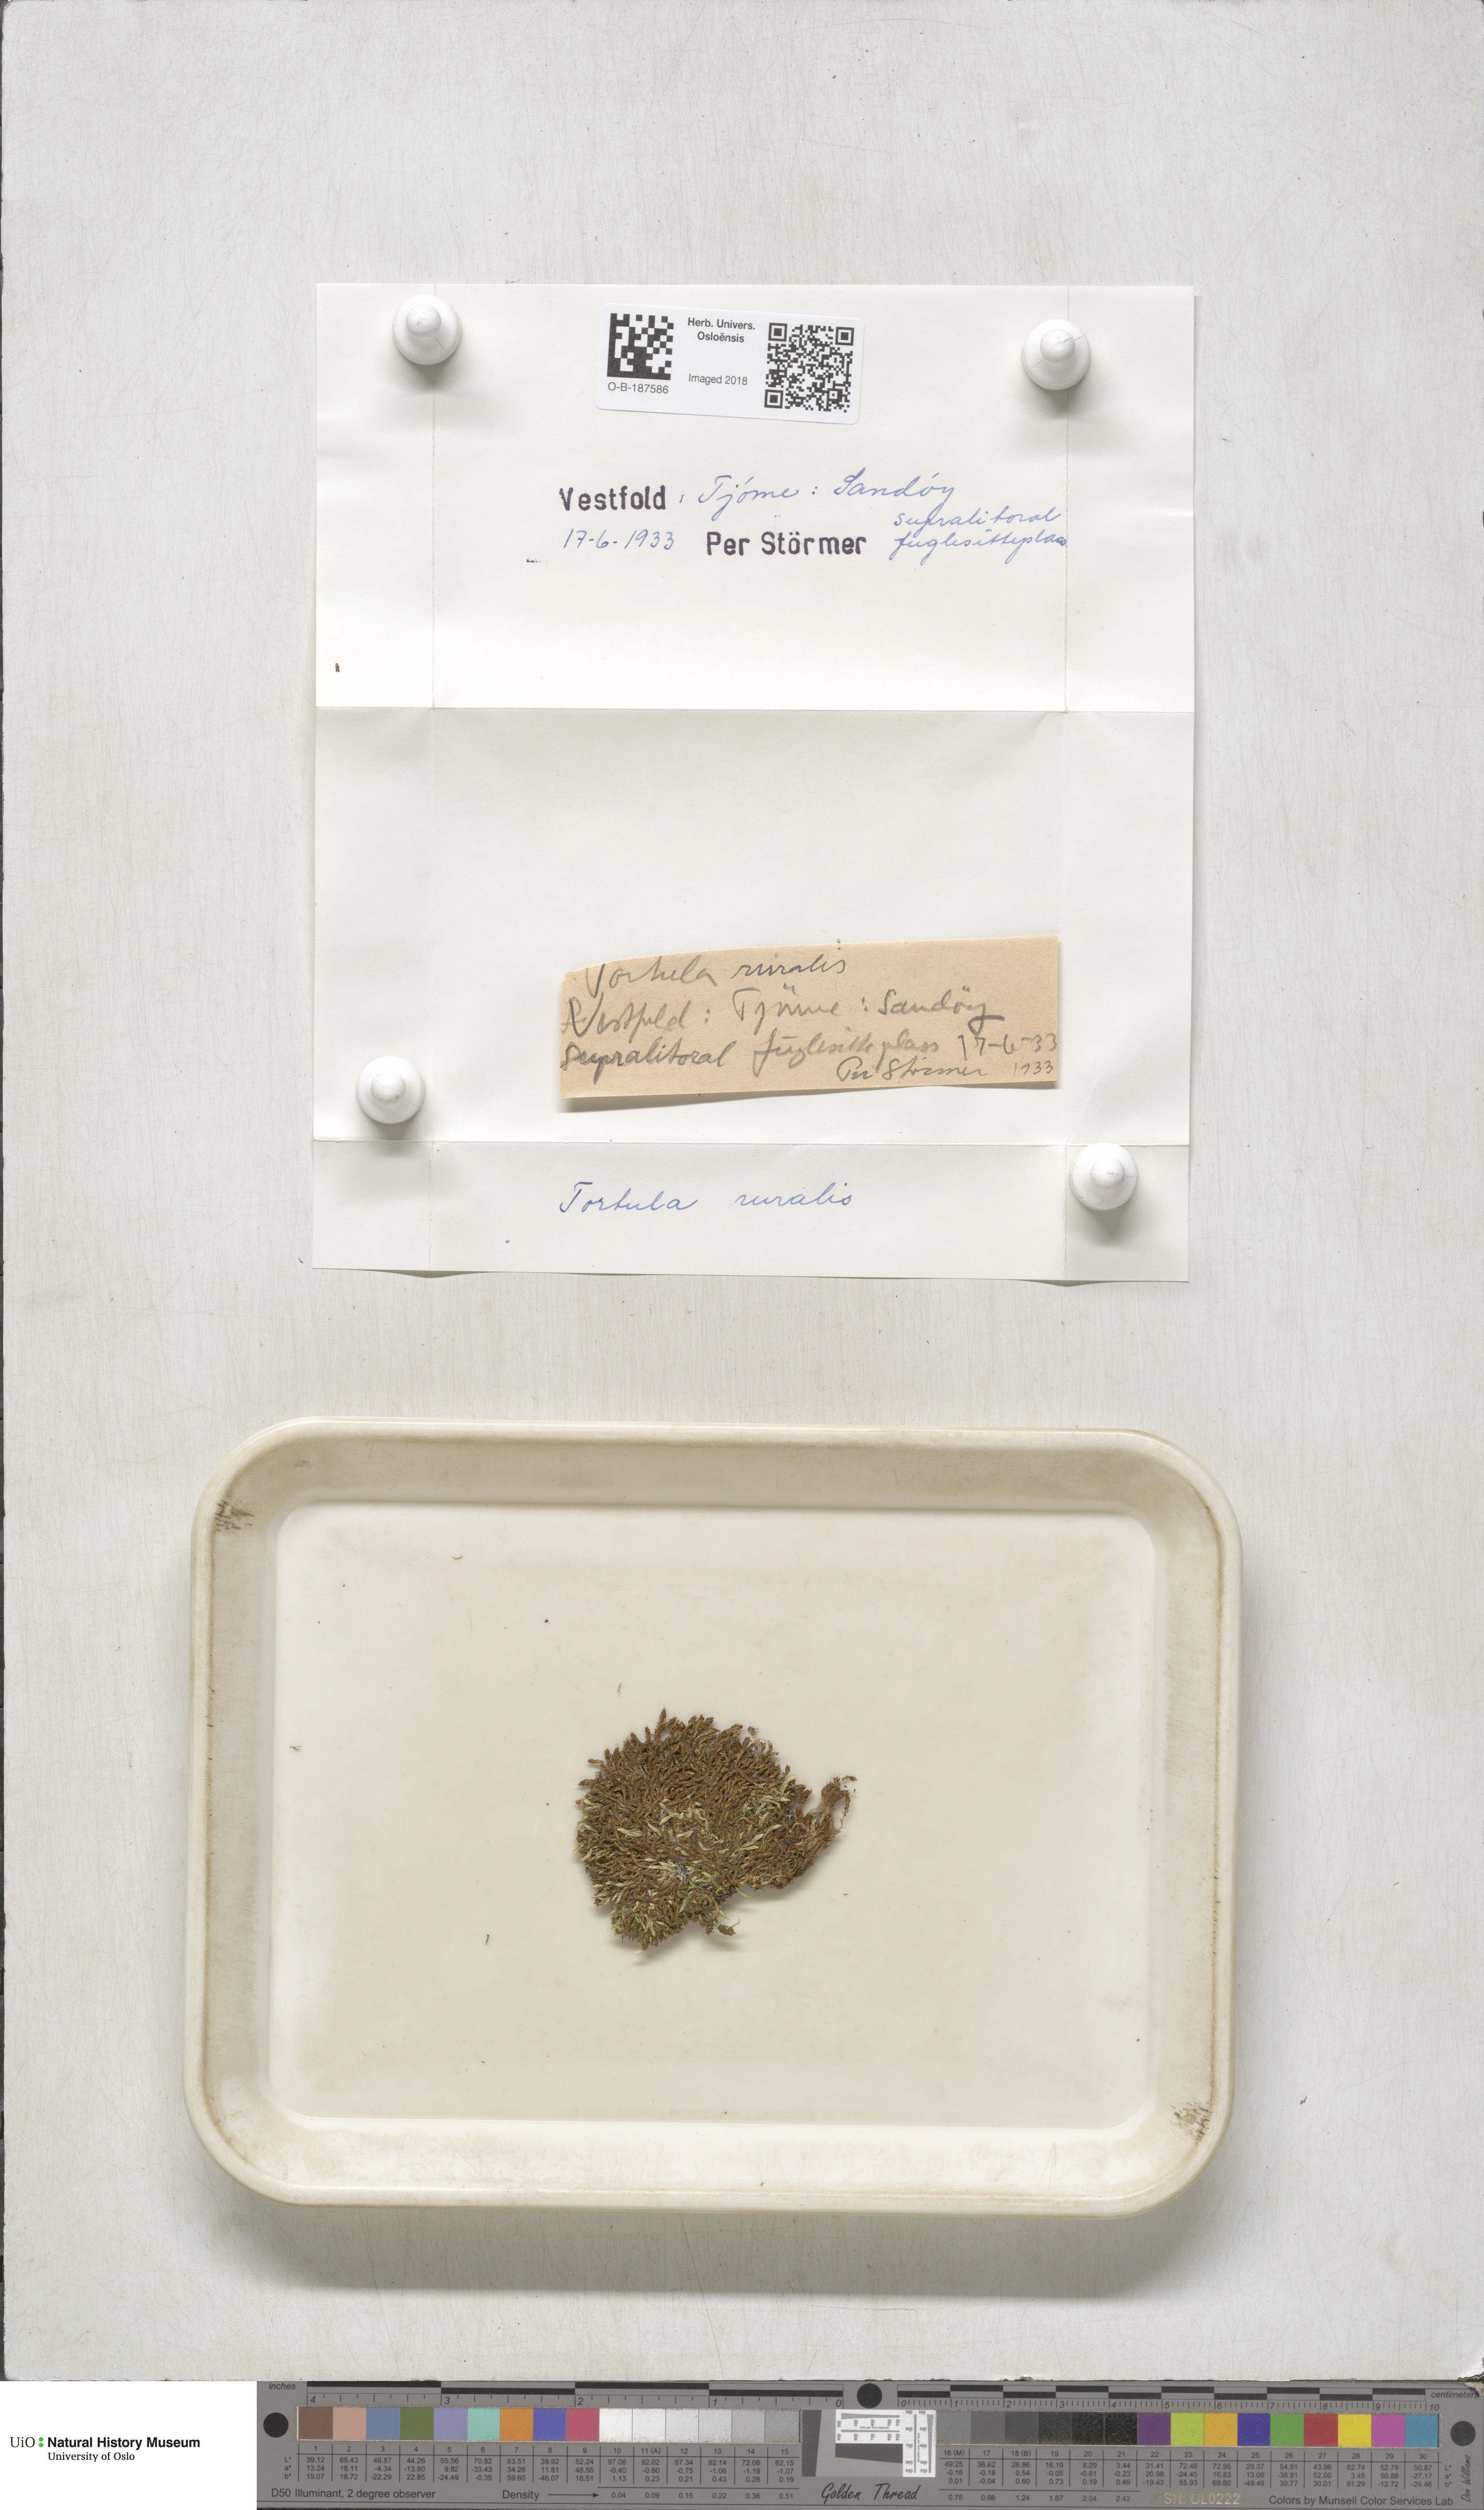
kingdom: Plantae
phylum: Bryophyta
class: Bryopsida
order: Pottiales
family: Pottiaceae
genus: Syntrichia
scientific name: Syntrichia ruralis
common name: Sidewalk screw moss
